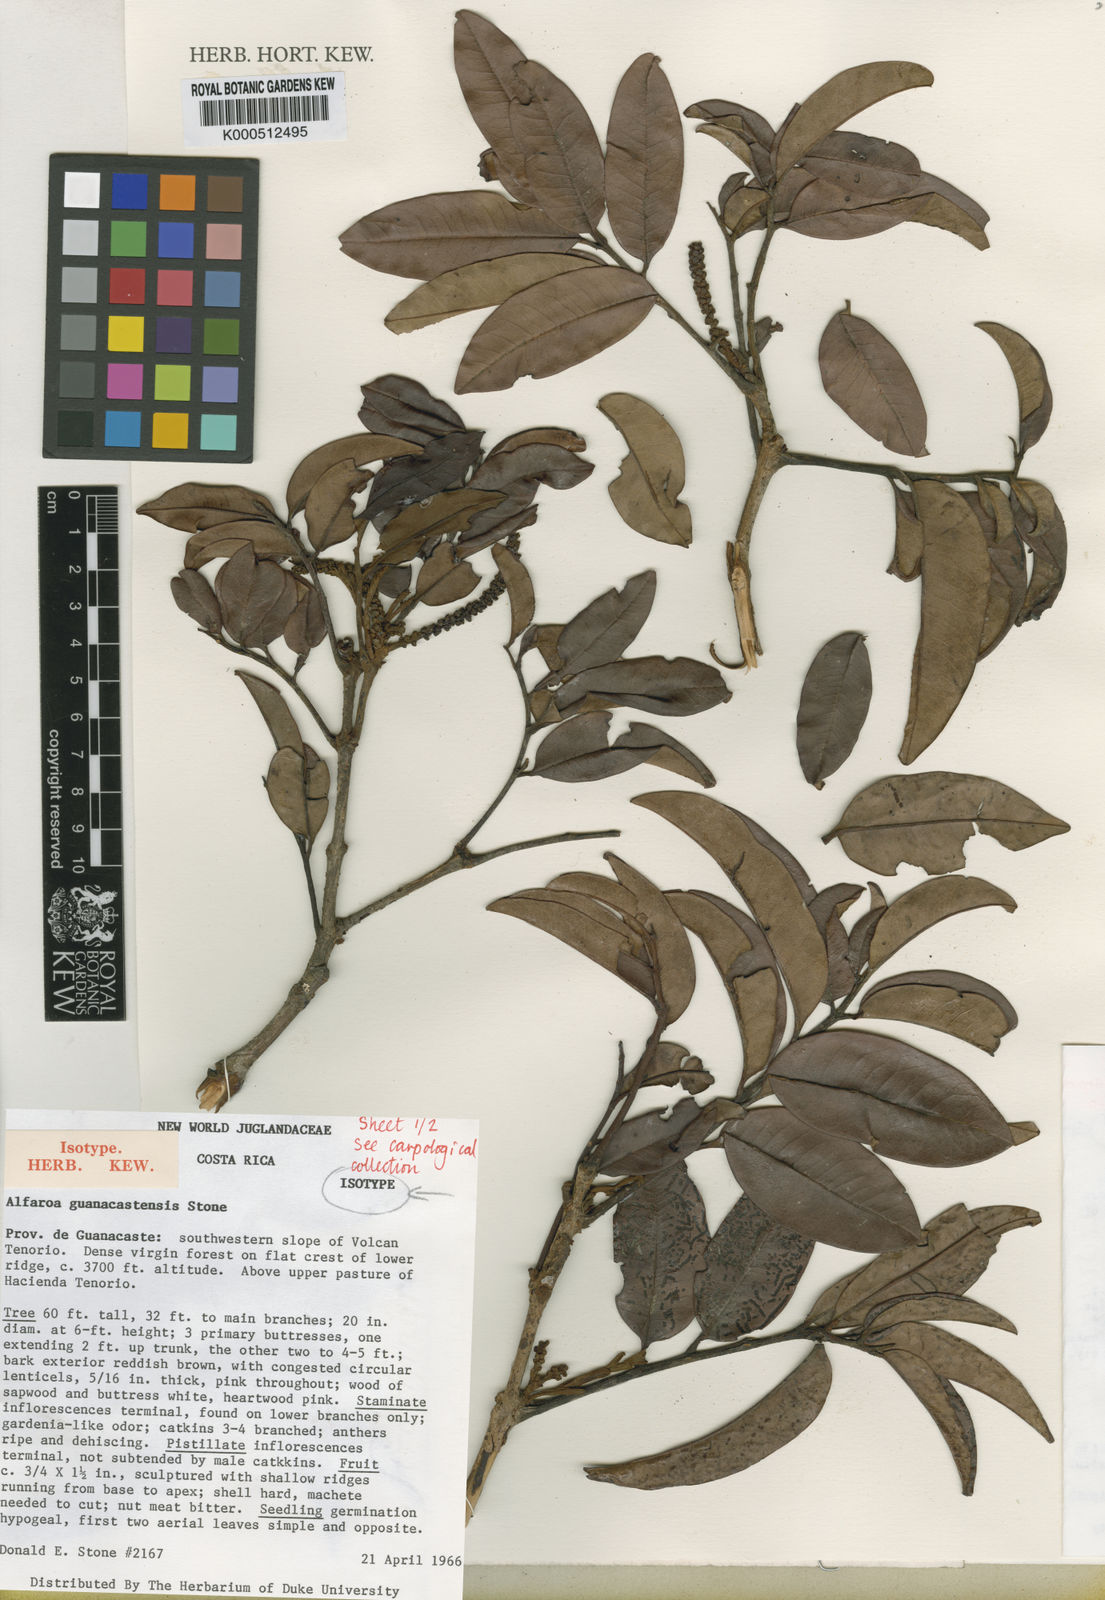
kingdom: Plantae
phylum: Tracheophyta
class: Magnoliopsida
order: Fagales
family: Juglandaceae
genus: Alfaroa
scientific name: Alfaroa guanacastensis
